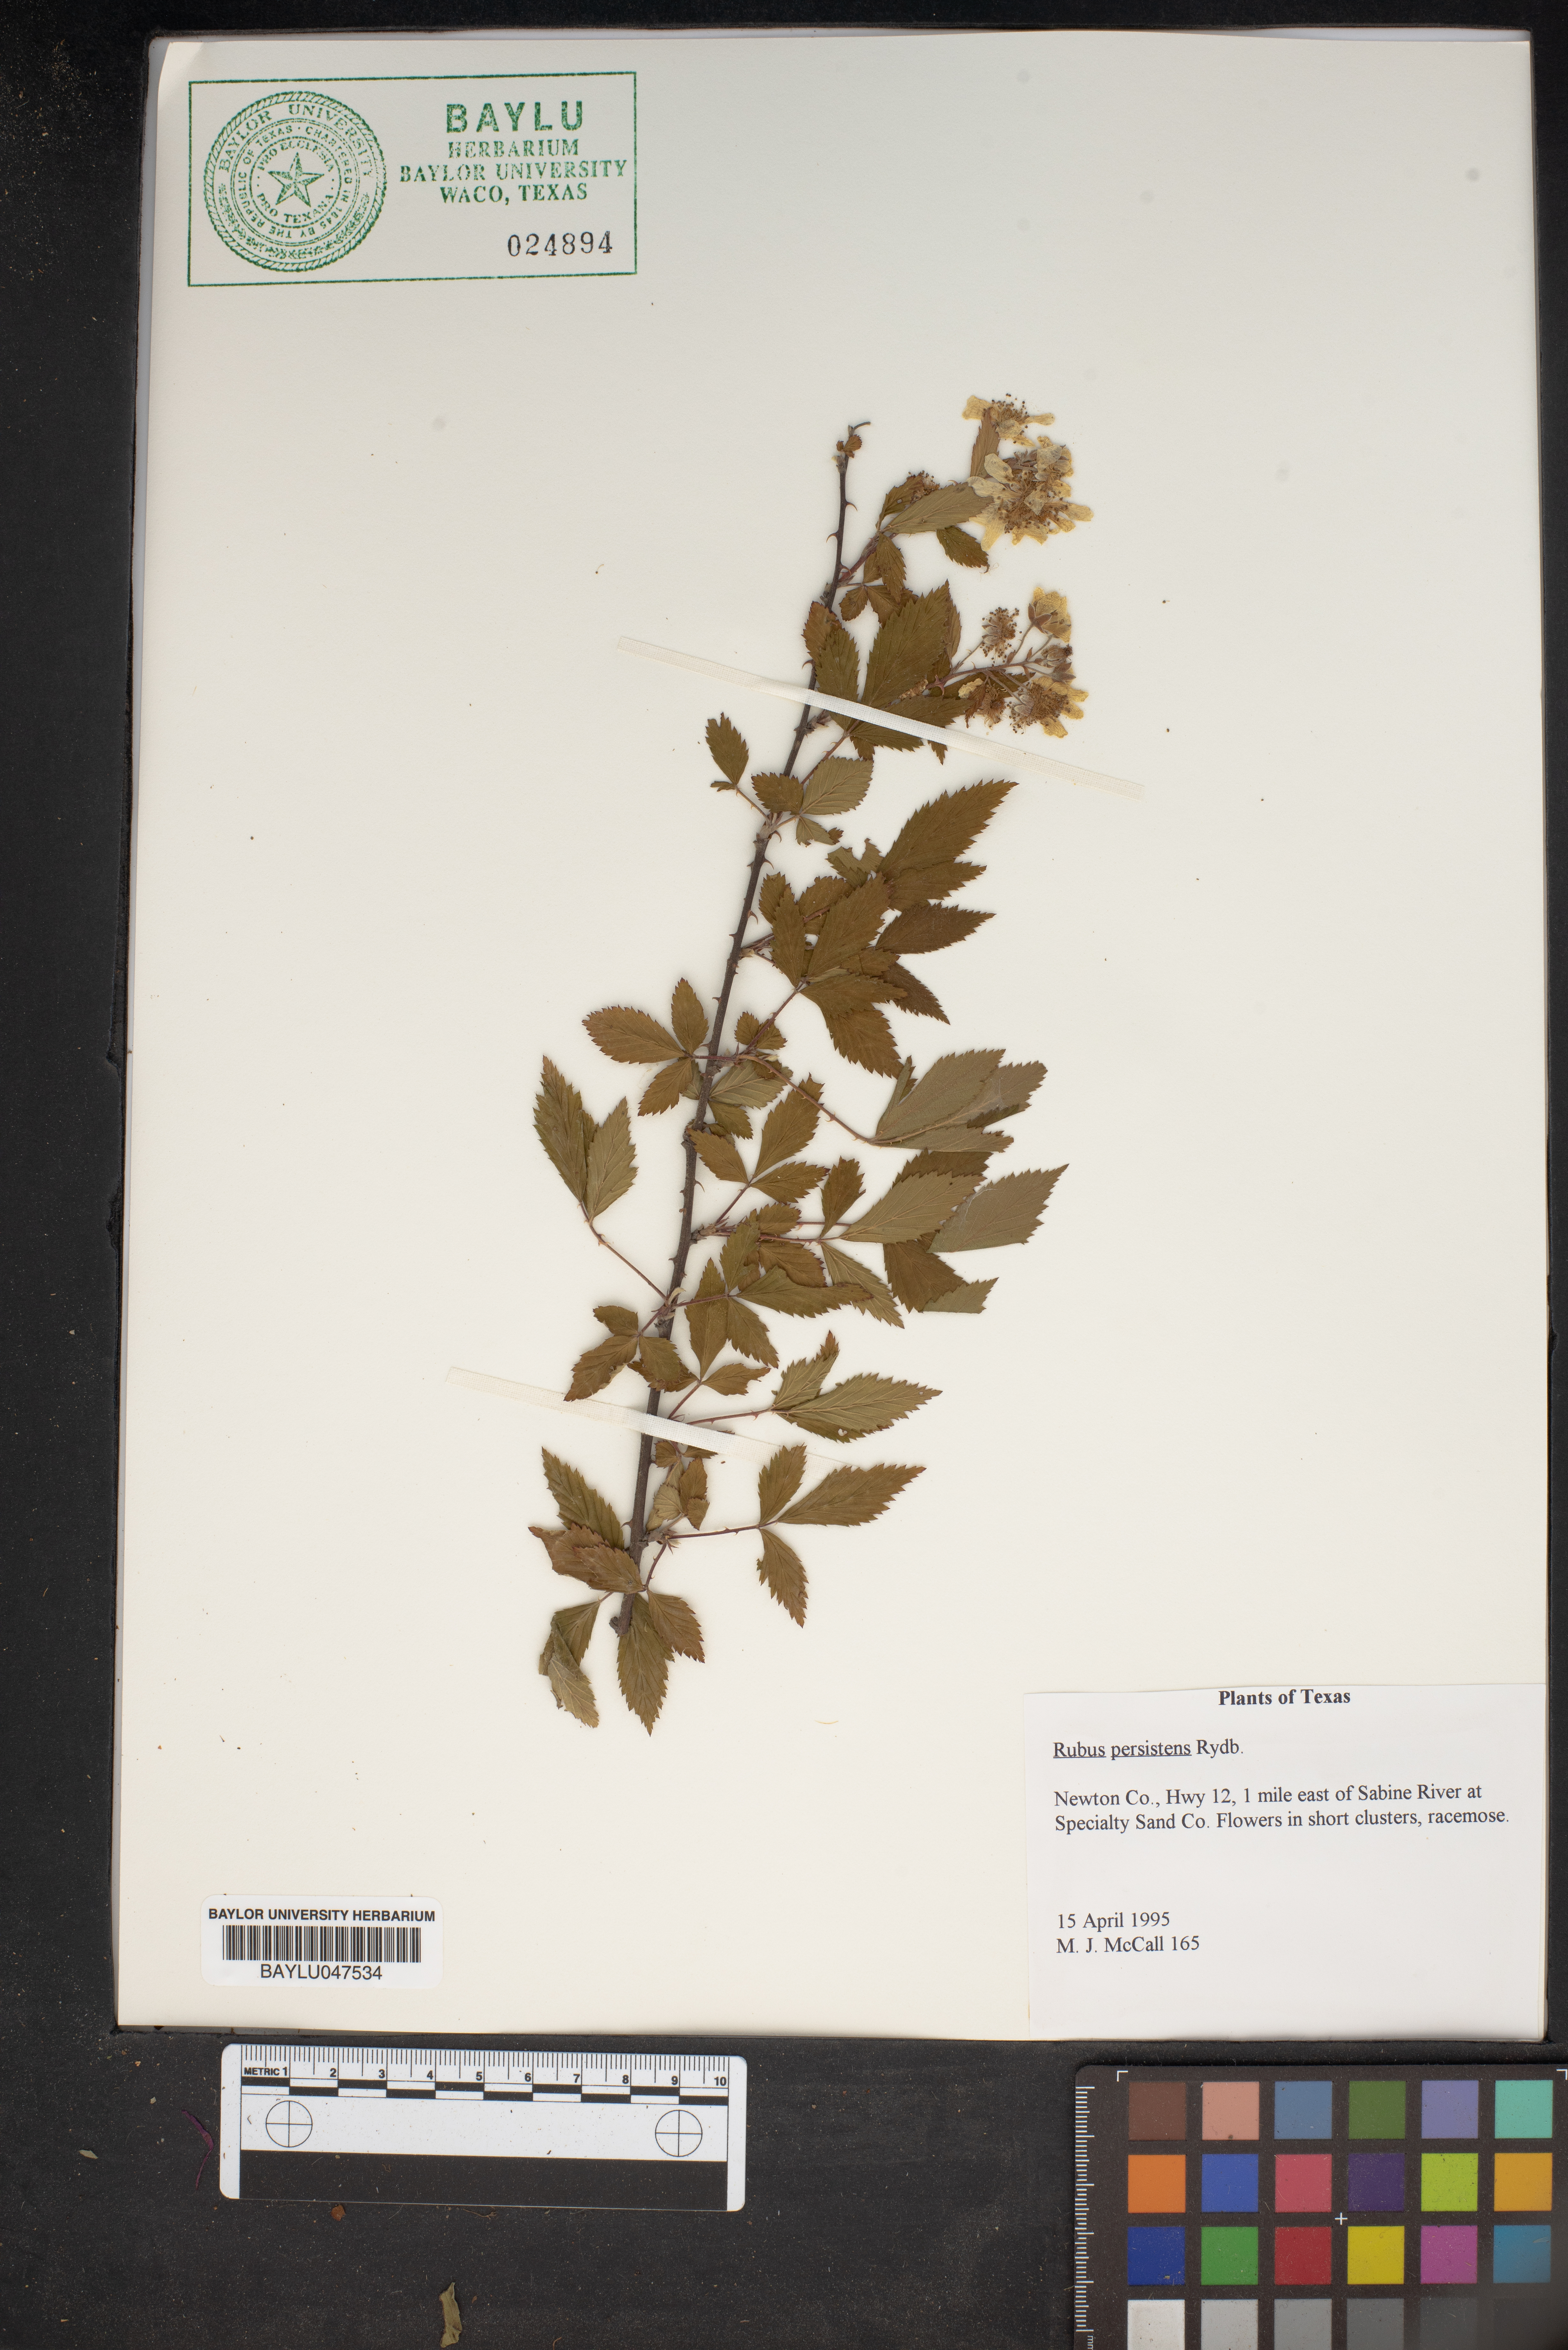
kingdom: Plantae
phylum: Tracheophyta
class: Magnoliopsida
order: Rosales
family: Rosaceae
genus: Rubus
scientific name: Rubus persistens
